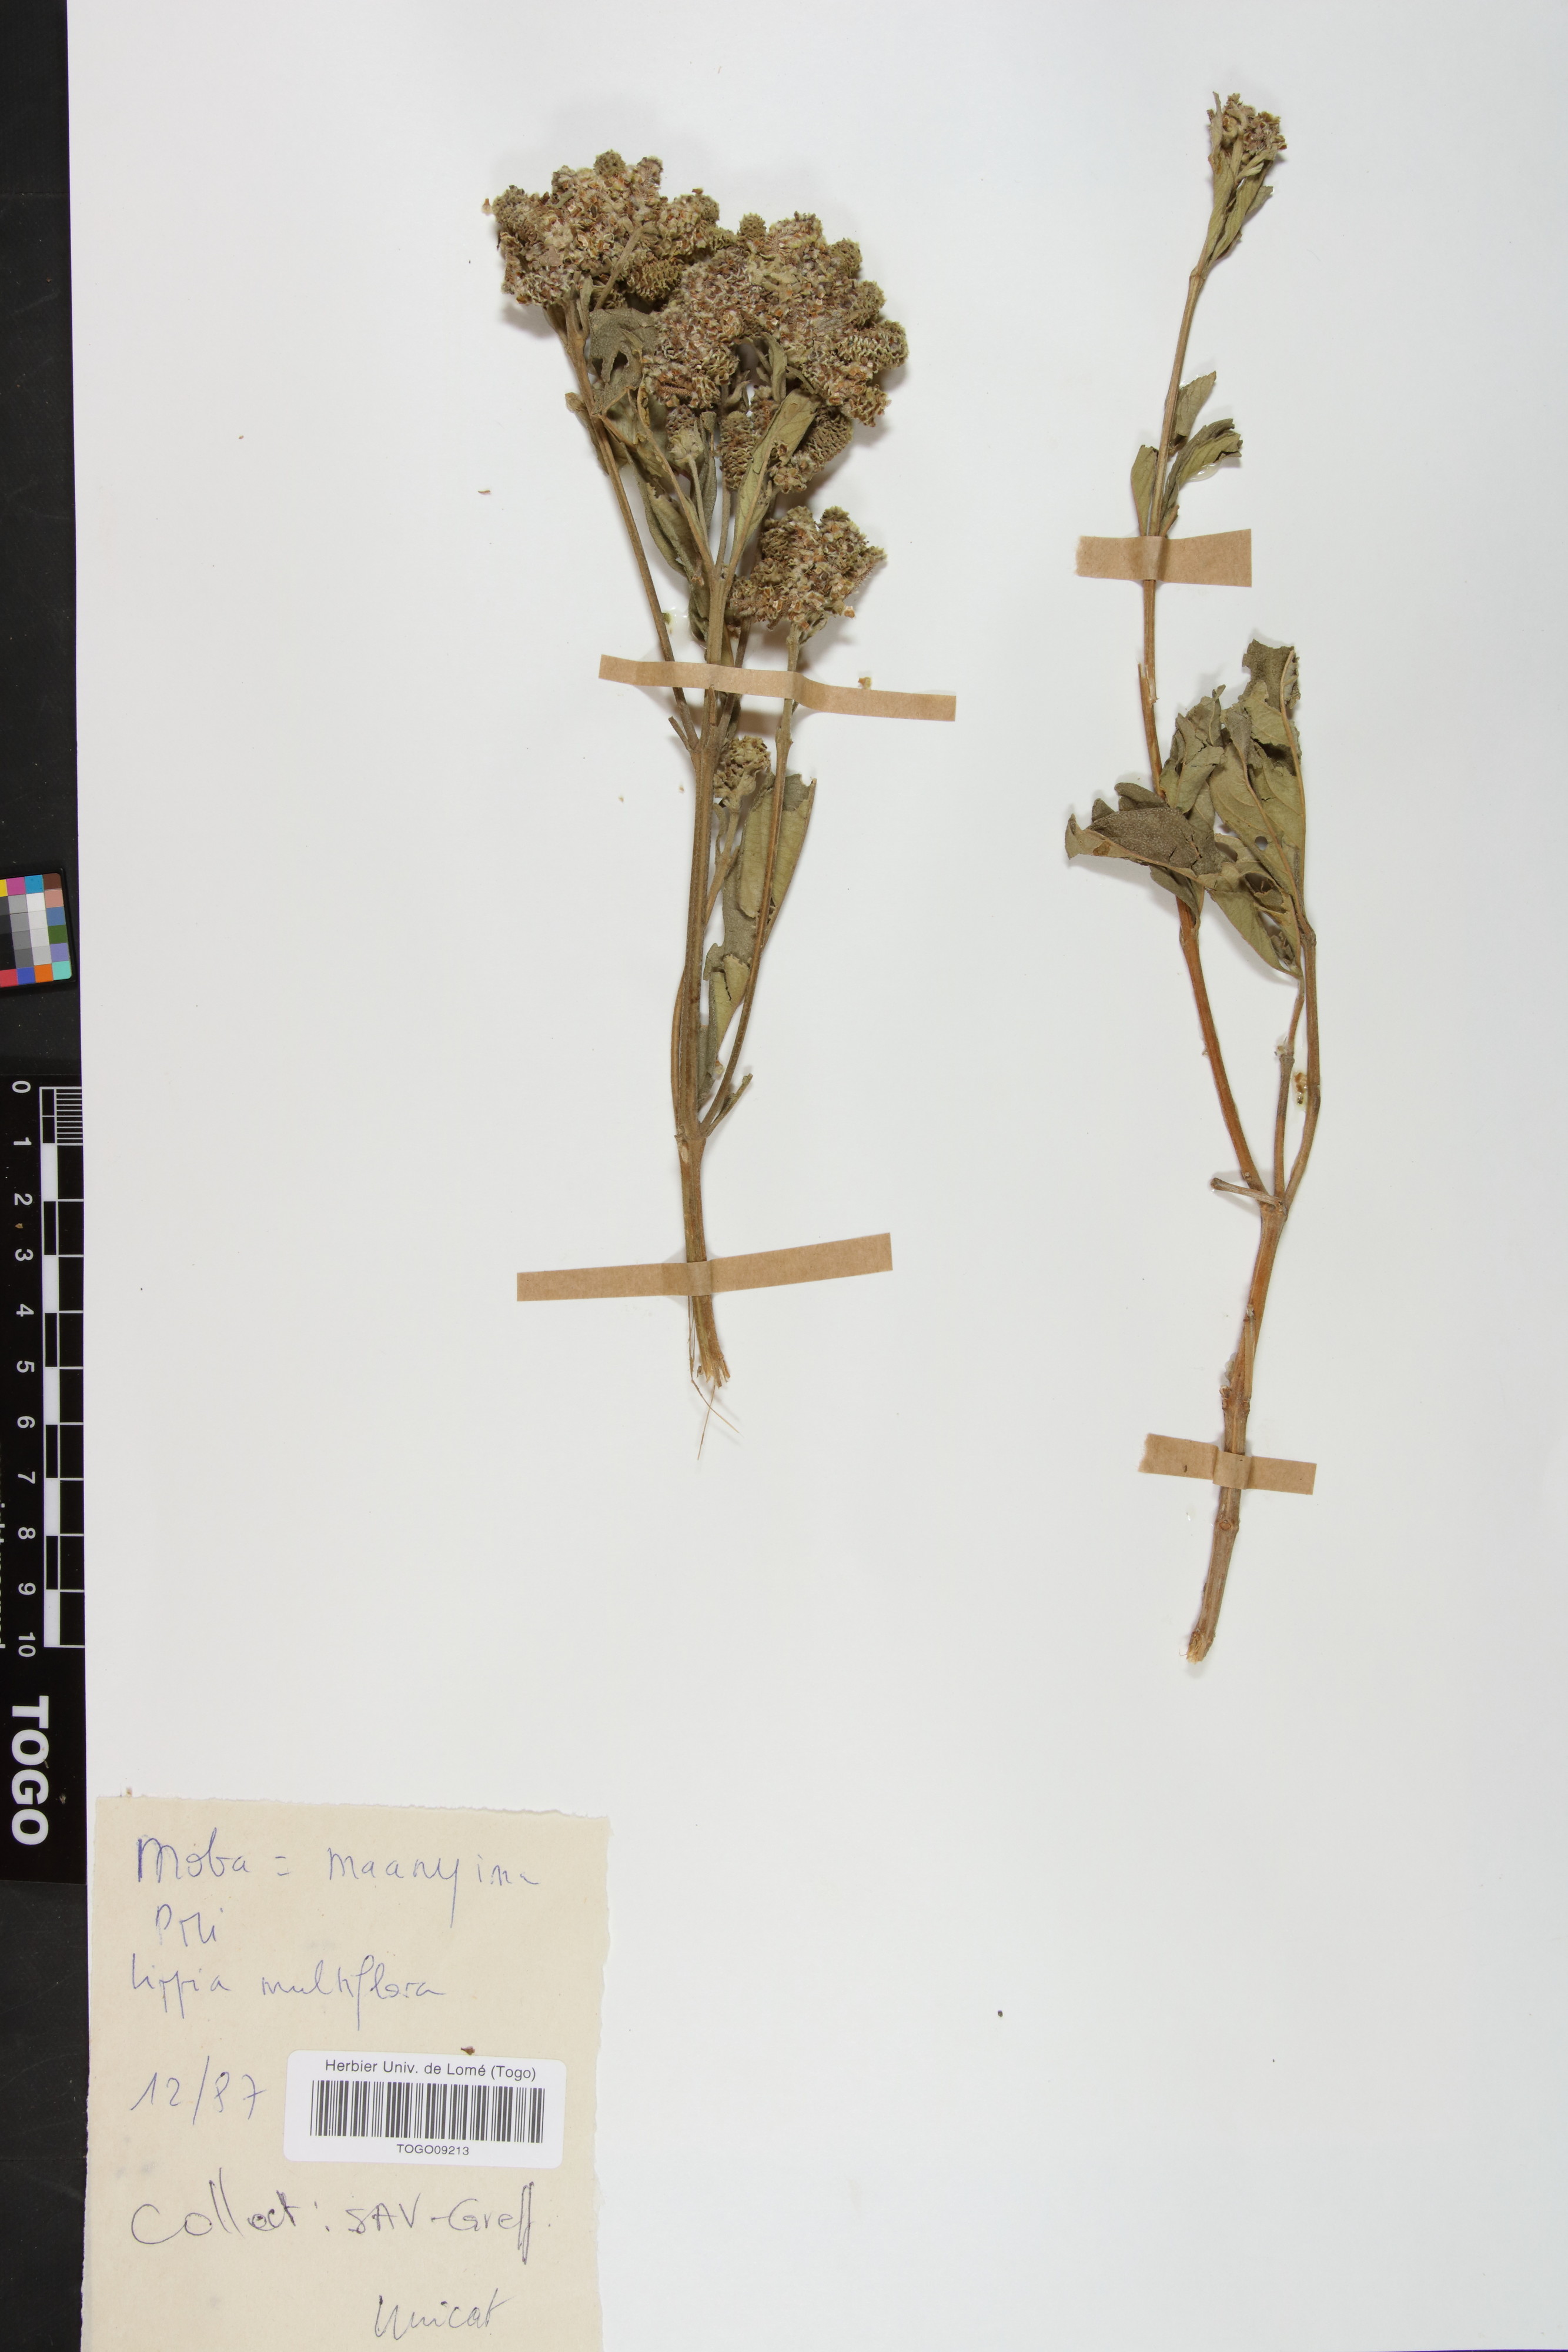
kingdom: Plantae
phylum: Tracheophyta
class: Magnoliopsida
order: Lamiales
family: Verbenaceae
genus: Lippia
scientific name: Lippia multiflora
